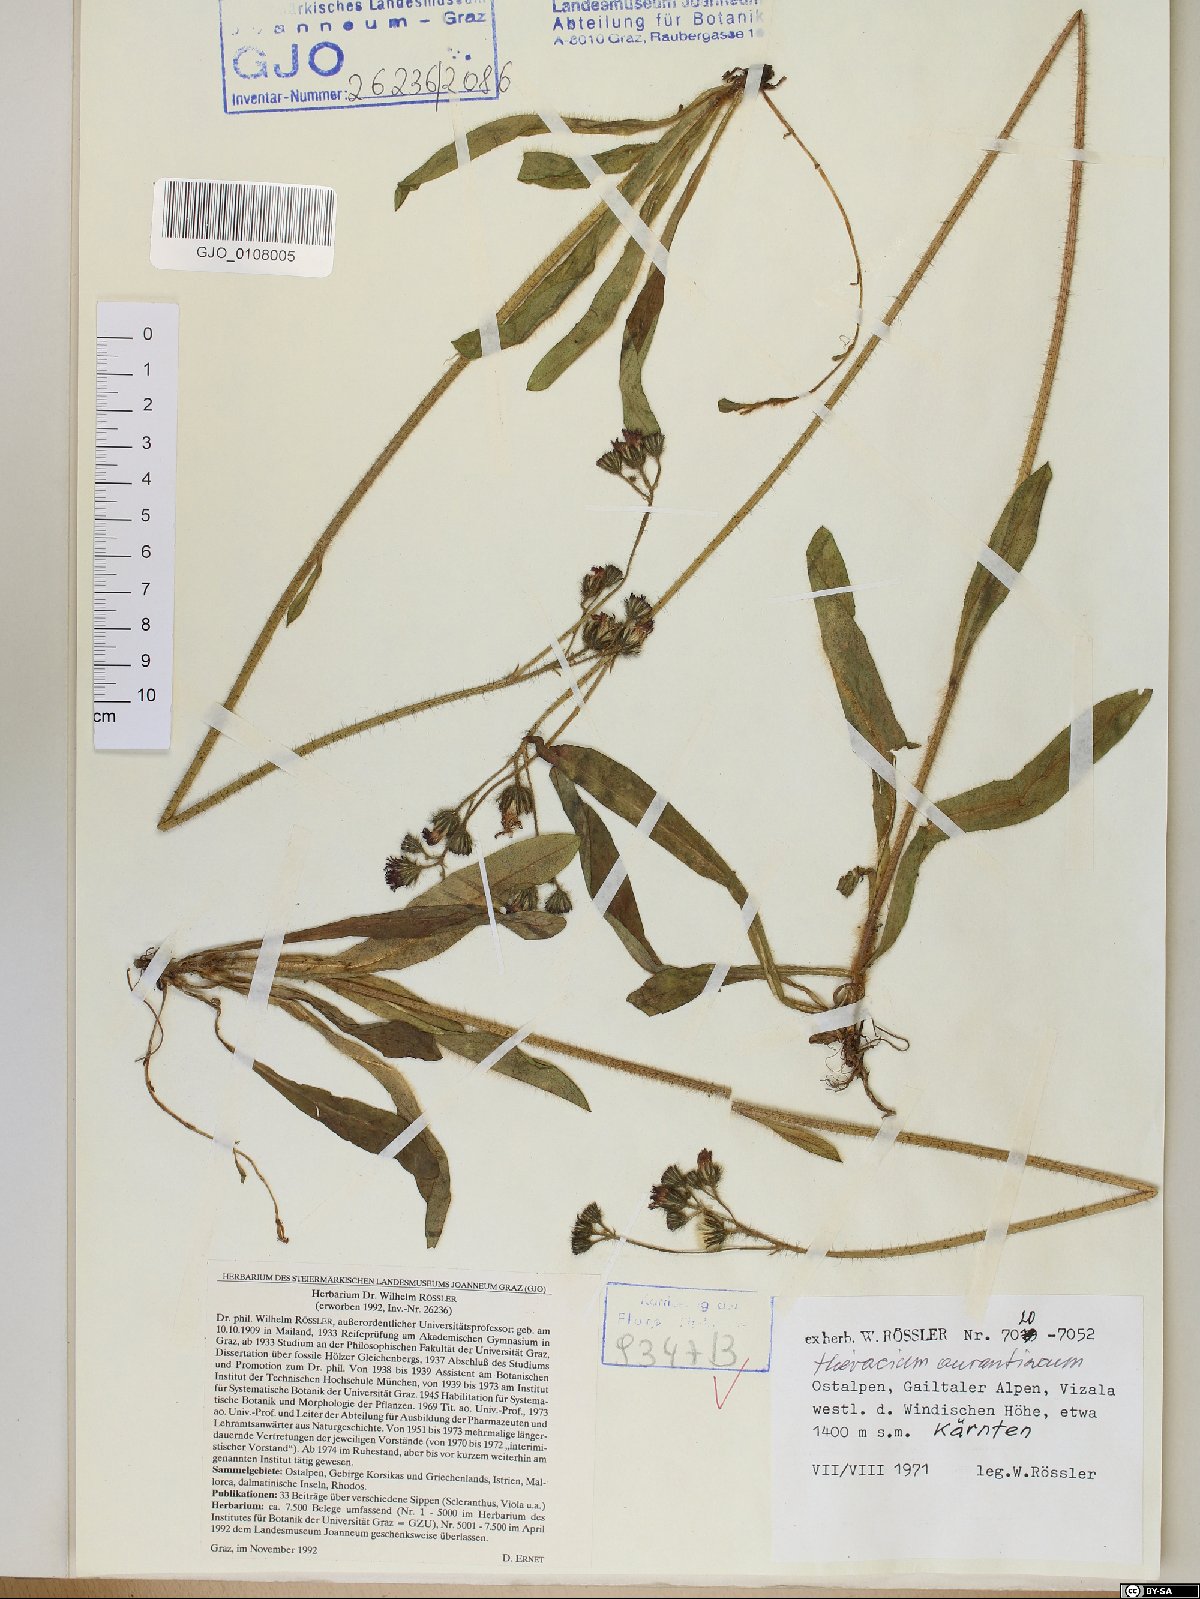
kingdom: Plantae
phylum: Tracheophyta
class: Magnoliopsida
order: Asterales
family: Asteraceae
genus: Pilosella
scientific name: Pilosella aurantiaca
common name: Fox-and-cubs
